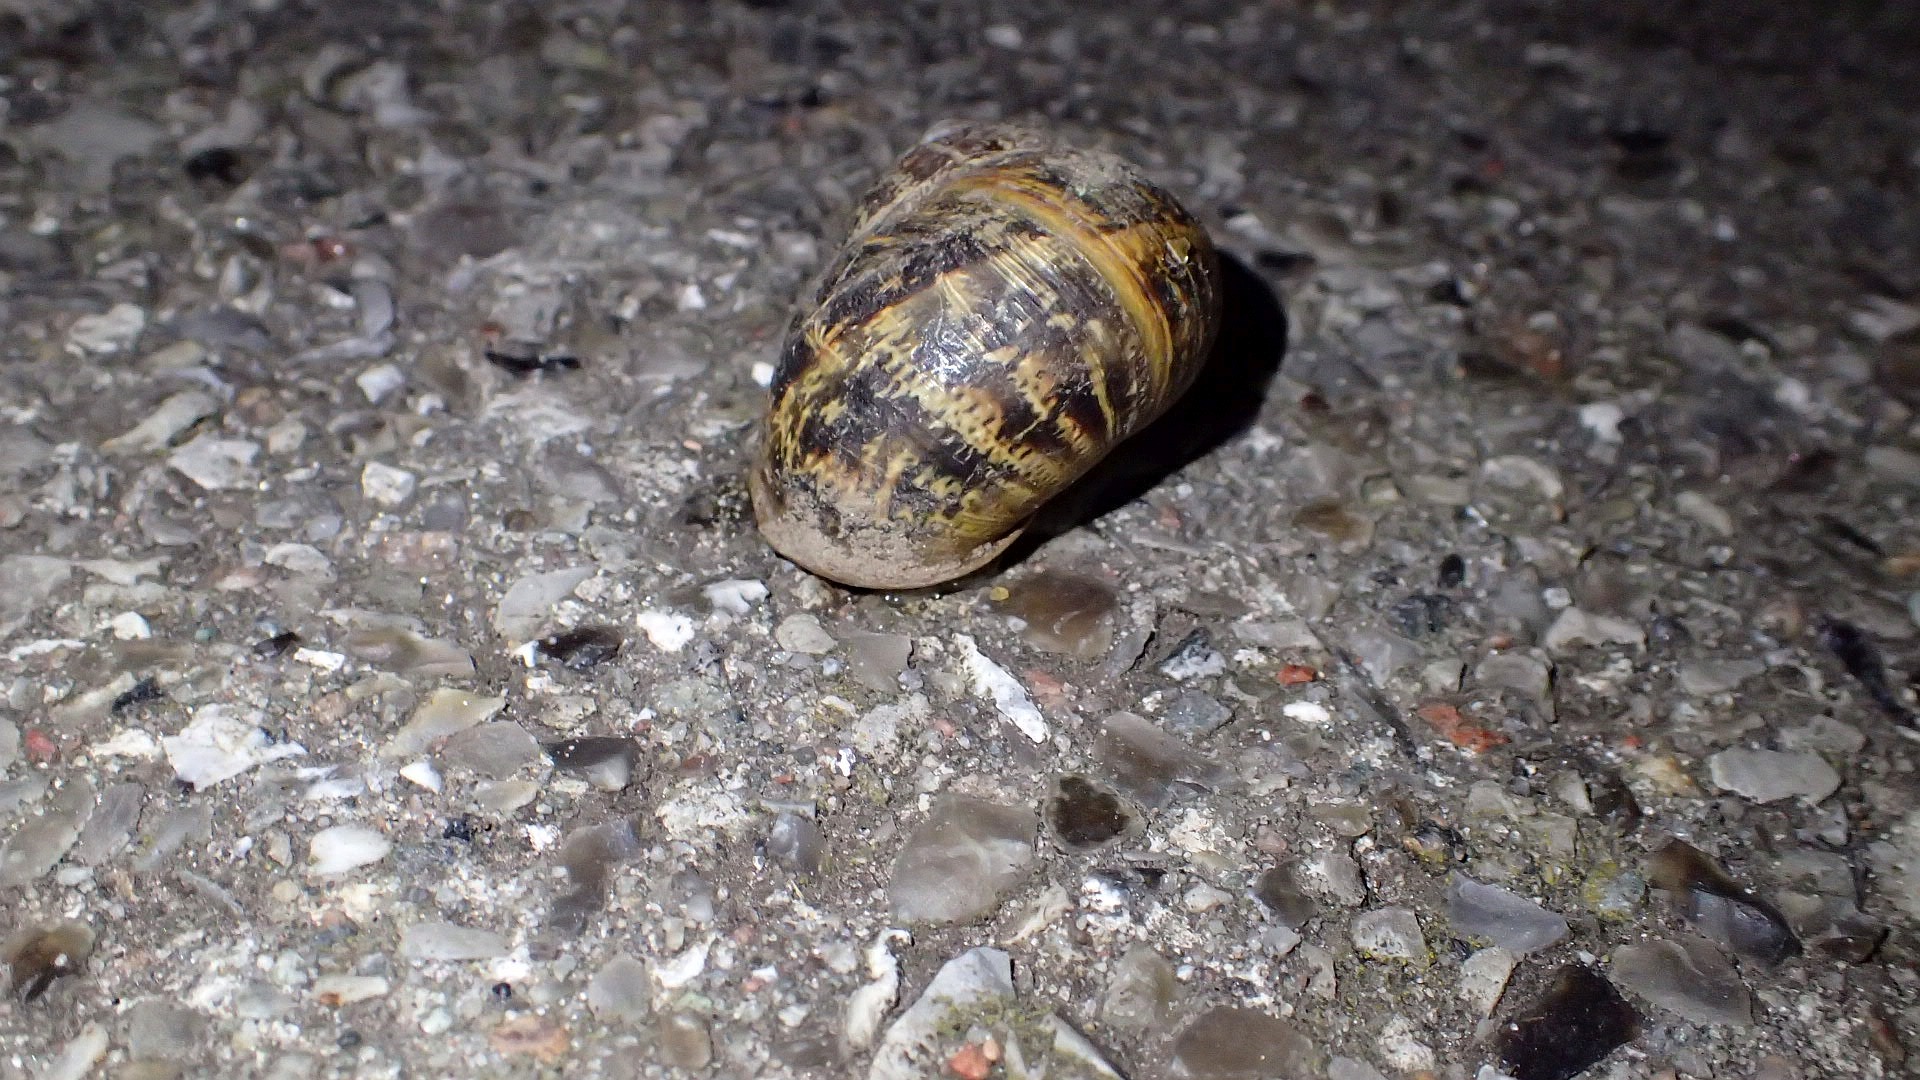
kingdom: Animalia
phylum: Mollusca
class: Gastropoda
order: Stylommatophora
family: Helicidae
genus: Cornu
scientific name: Cornu aspersum
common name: Plettet voldsnegl
